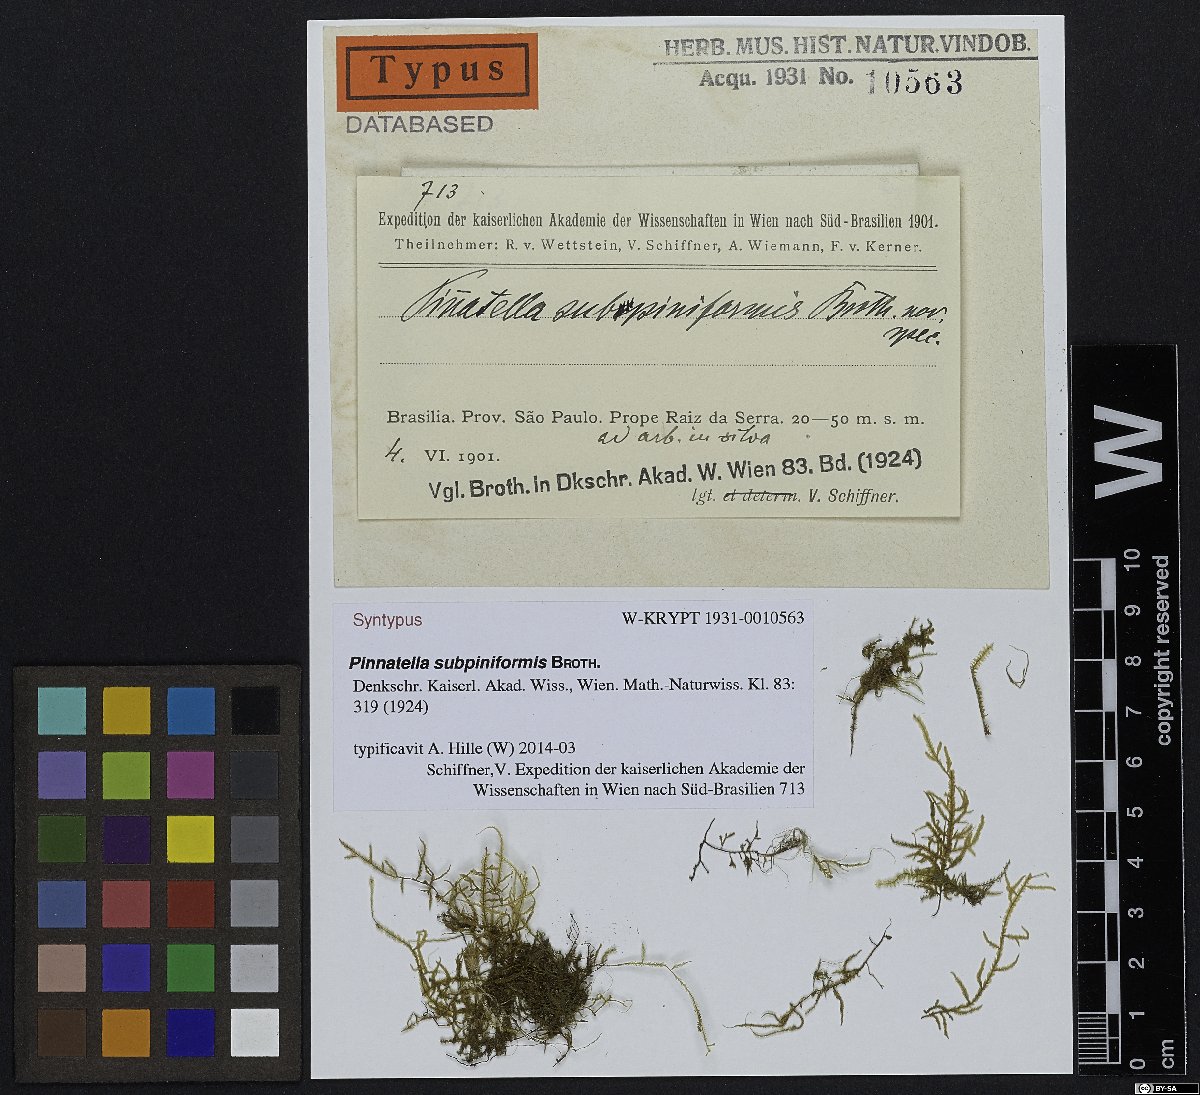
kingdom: Plantae
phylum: Bryophyta
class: Bryopsida
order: Hypnales
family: Orthostichellaceae
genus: Pinnatidendron
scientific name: Pinnatidendron piniforme
